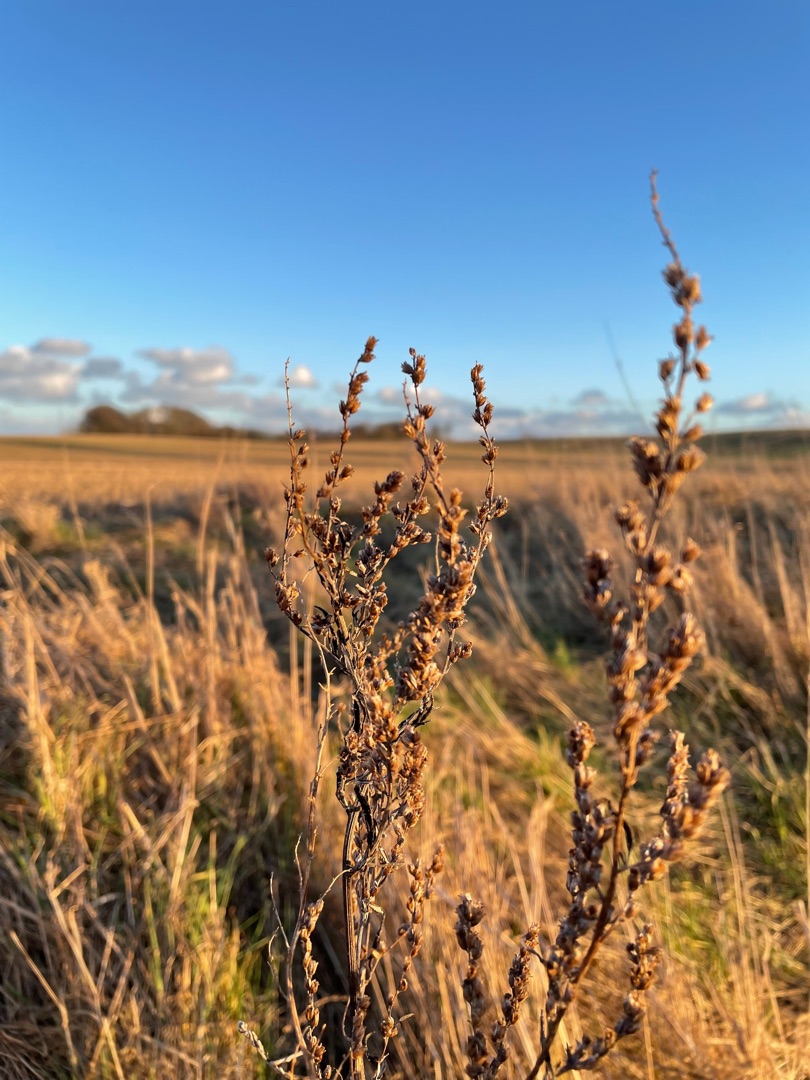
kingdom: Plantae
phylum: Tracheophyta
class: Magnoliopsida
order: Asterales
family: Asteraceae
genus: Artemisia
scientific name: Artemisia vulgaris
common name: Grå-bynke
